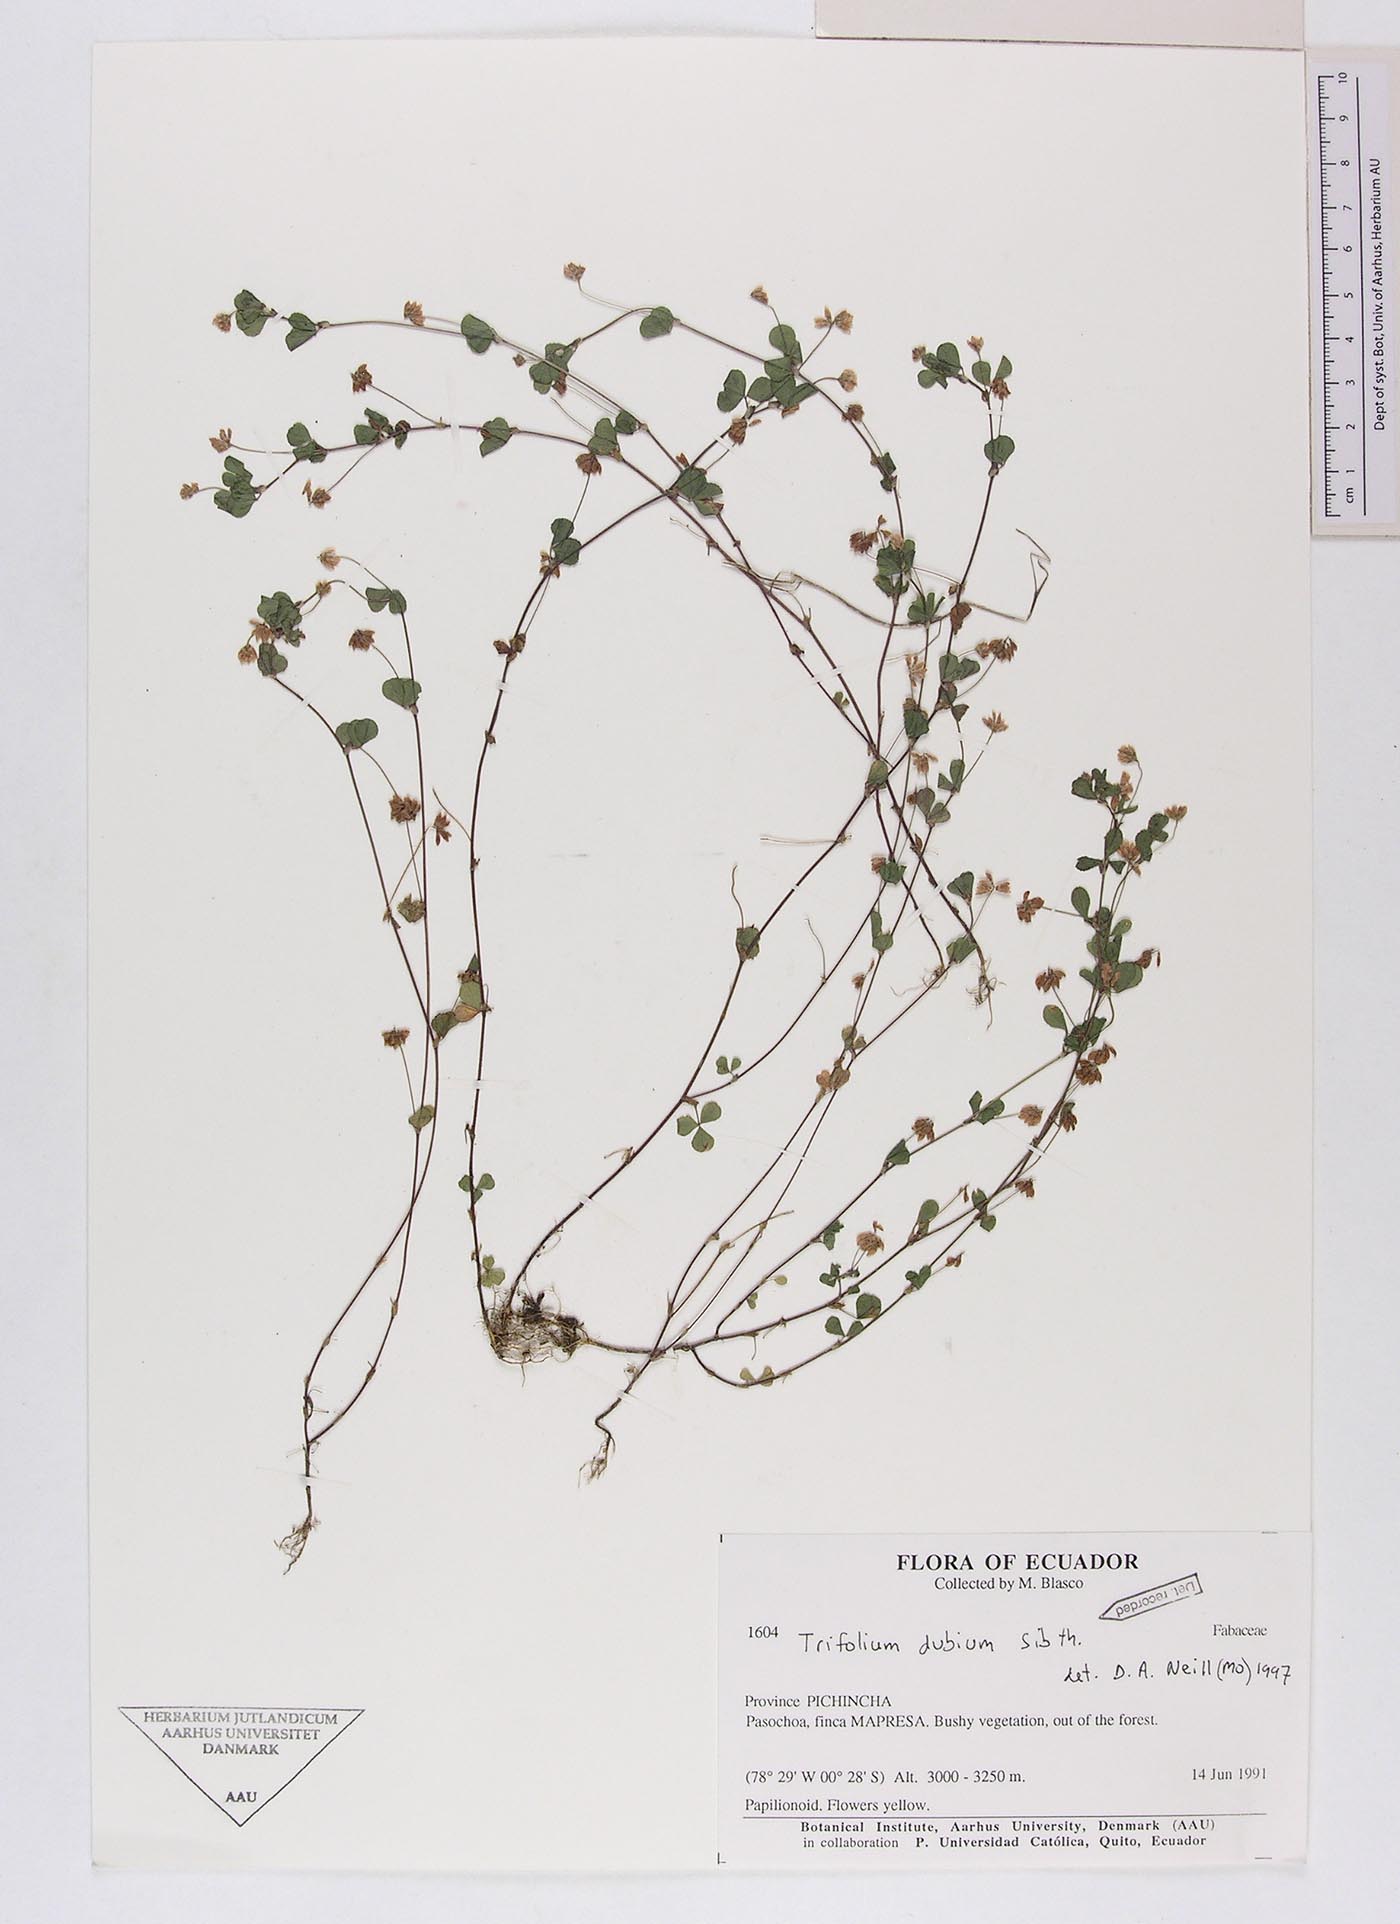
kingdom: Plantae
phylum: Tracheophyta
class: Magnoliopsida
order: Fabales
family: Fabaceae
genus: Trifolium
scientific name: Trifolium dubium
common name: Suckling clover
